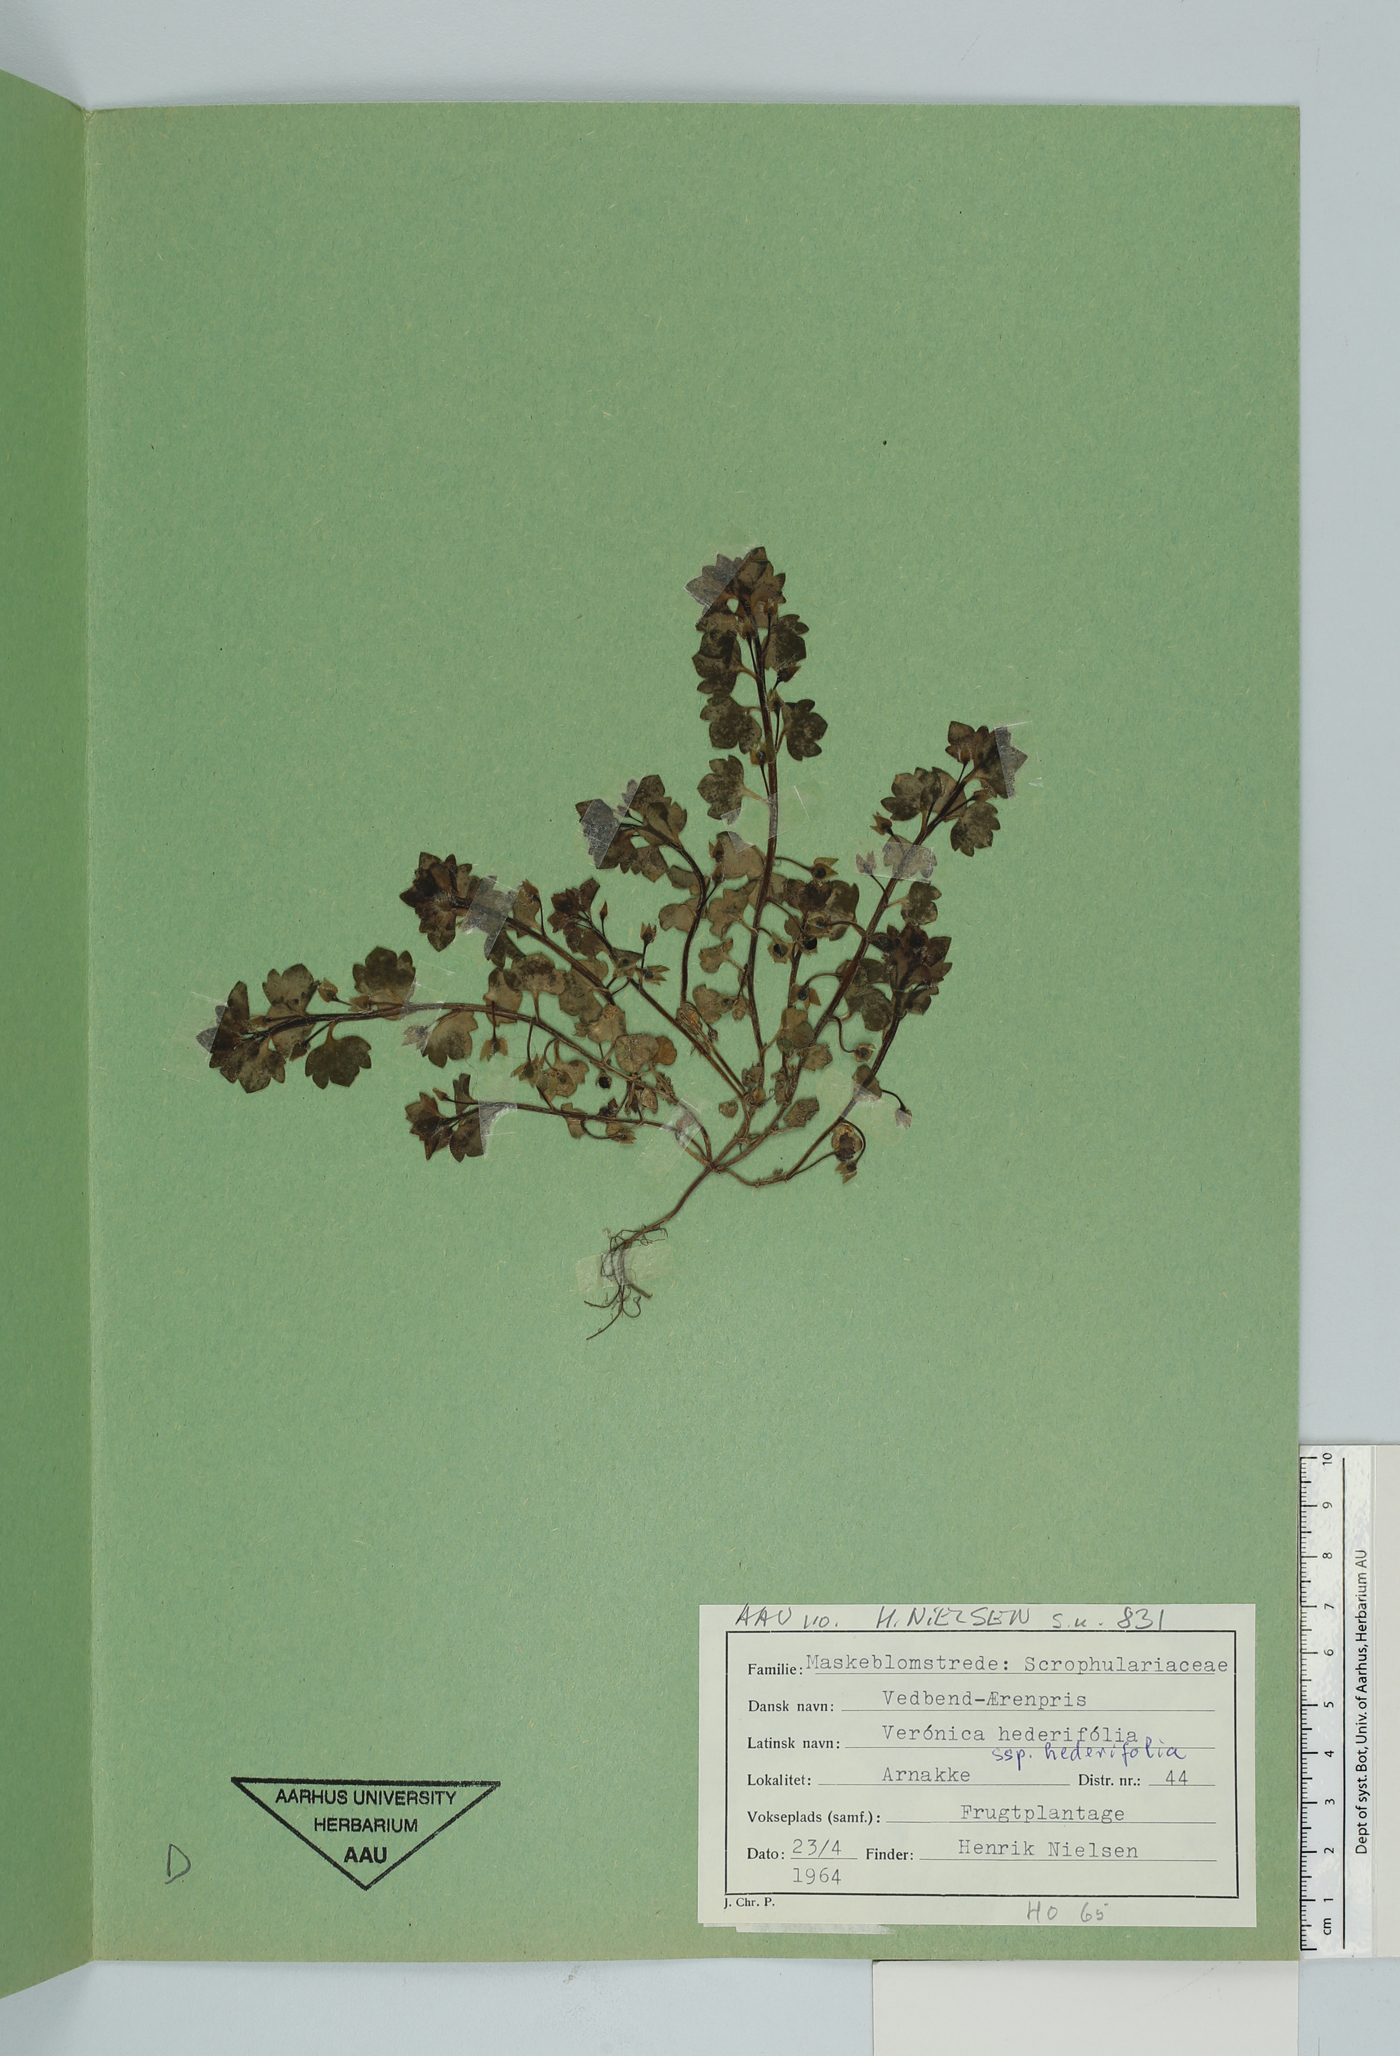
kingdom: Plantae
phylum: Tracheophyta
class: Magnoliopsida
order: Lamiales
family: Plantaginaceae
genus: Veronica
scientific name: Veronica hederifolia
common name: Ivy-leaved speedwell
